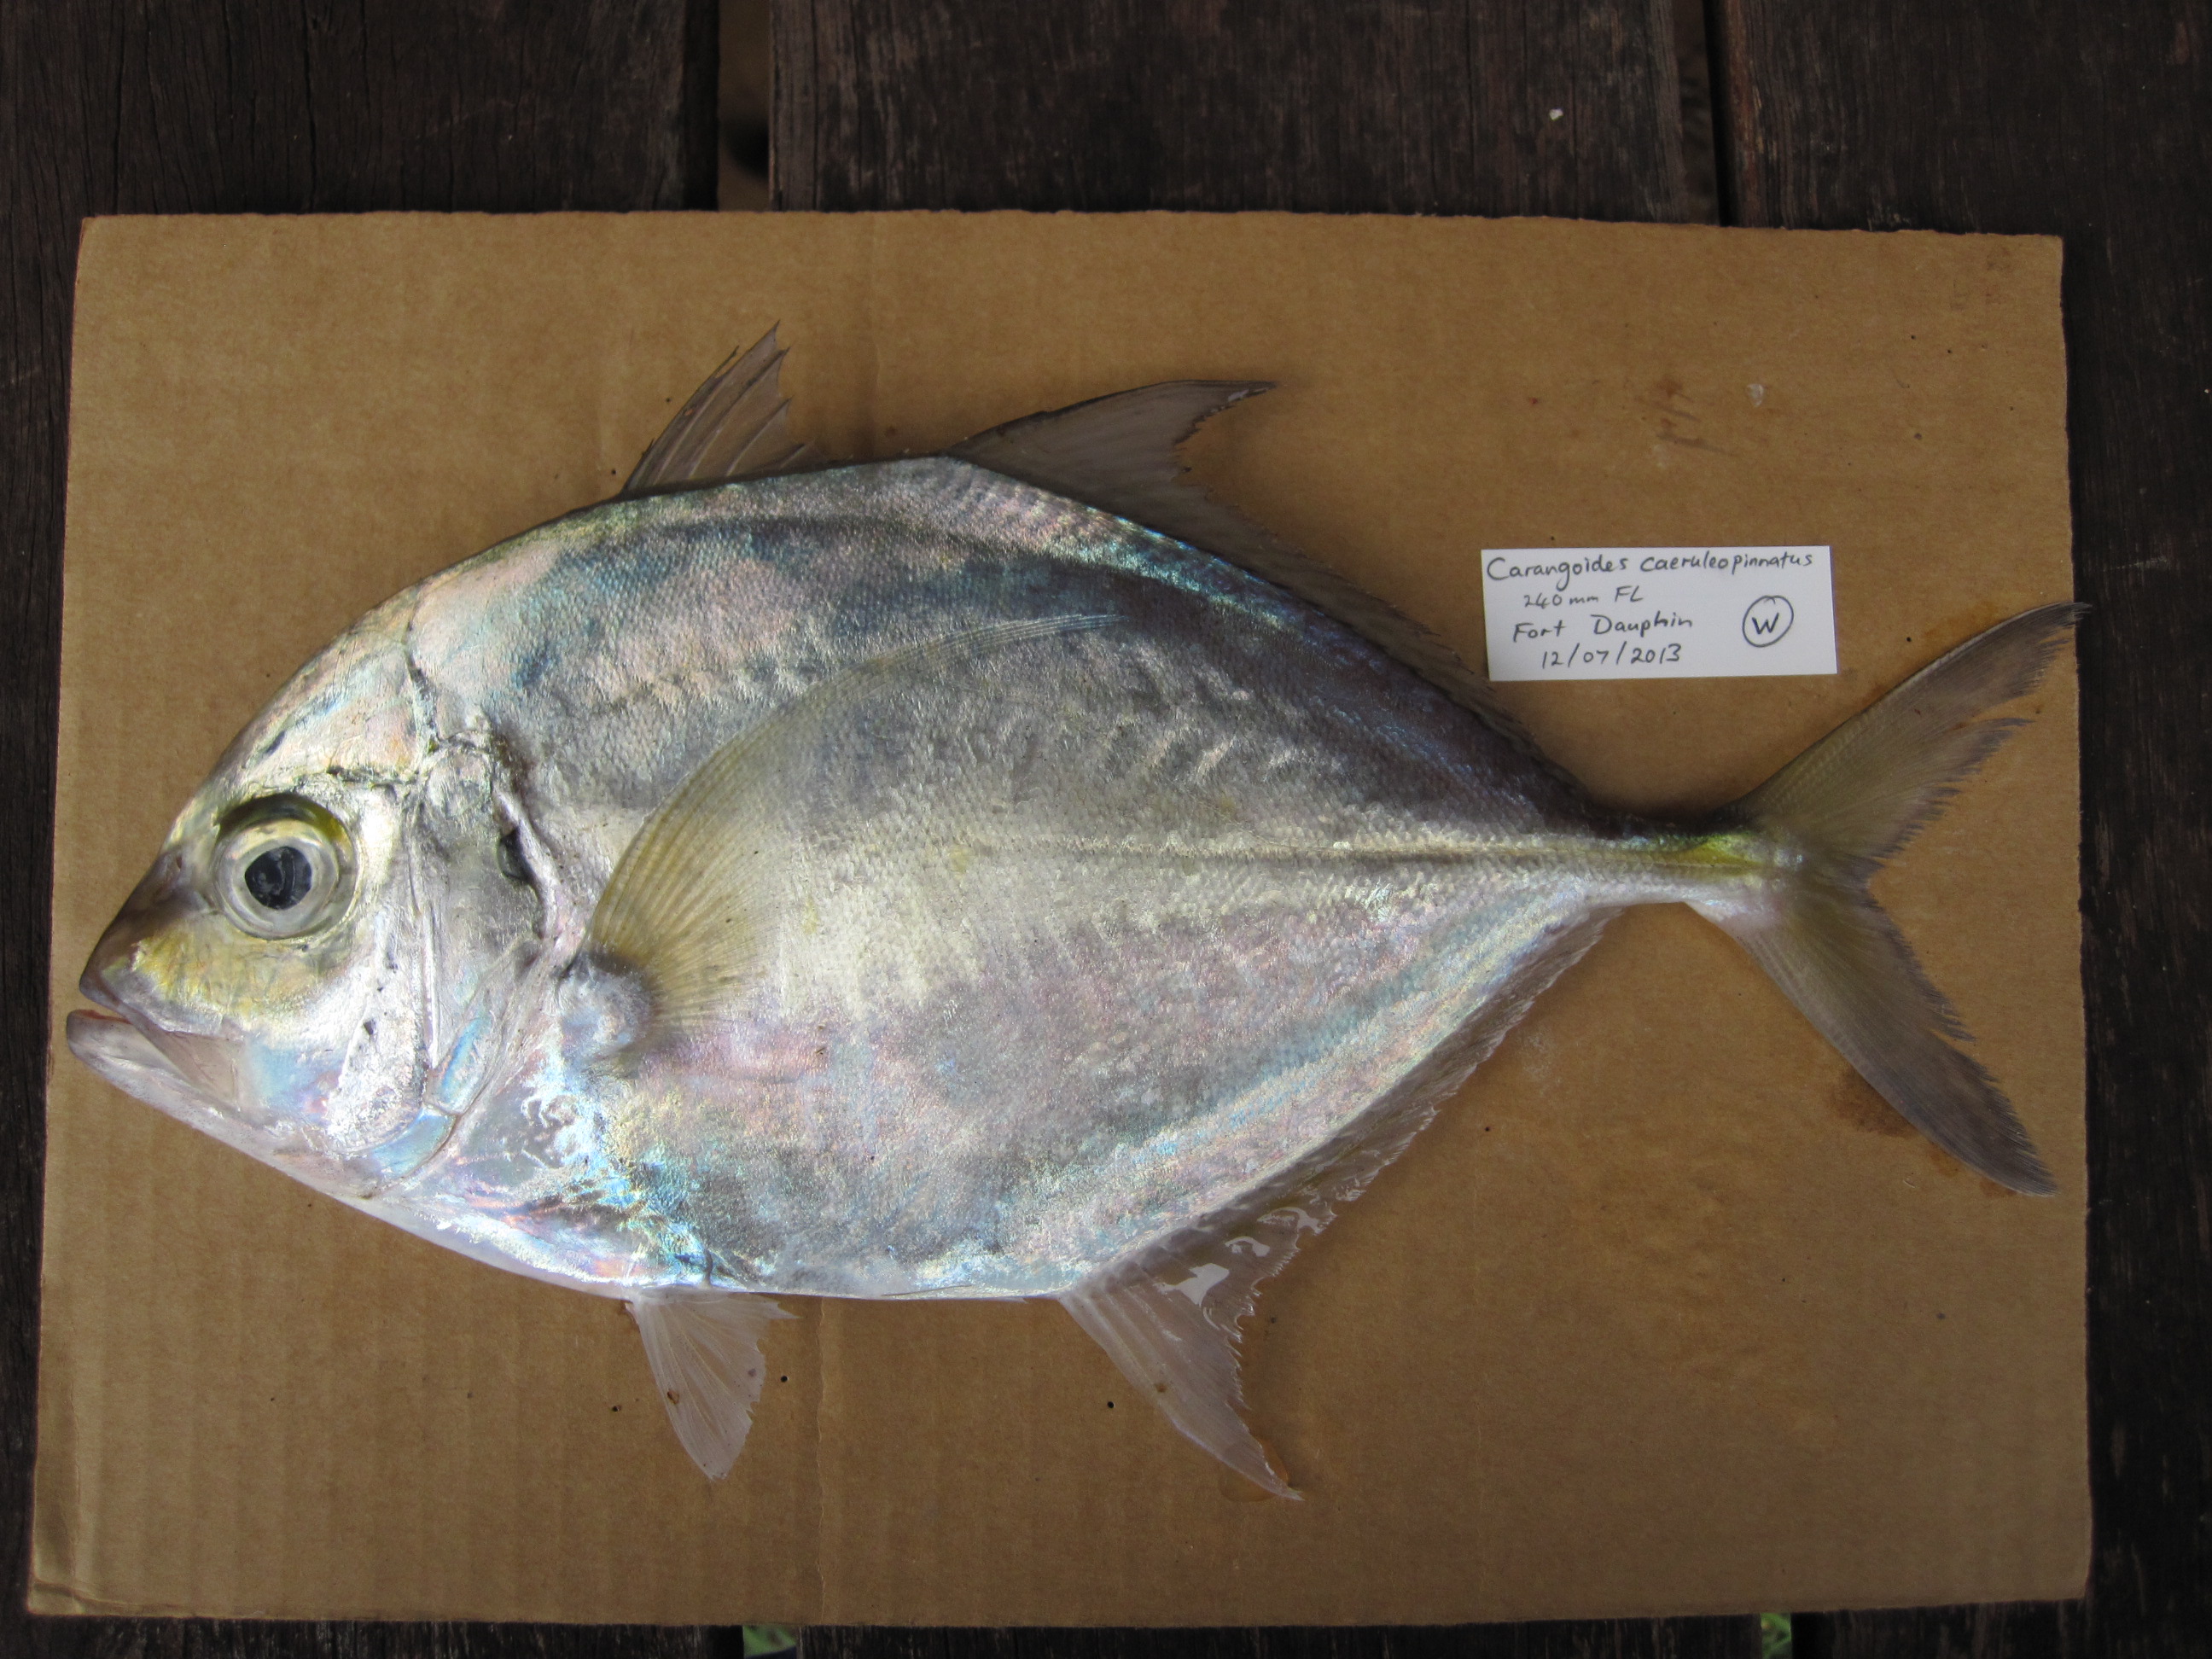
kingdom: Animalia
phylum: Chordata
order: Perciformes
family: Carangidae
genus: Carangoides
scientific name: Carangoides coeruleopinnatus
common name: Coastal trevally
